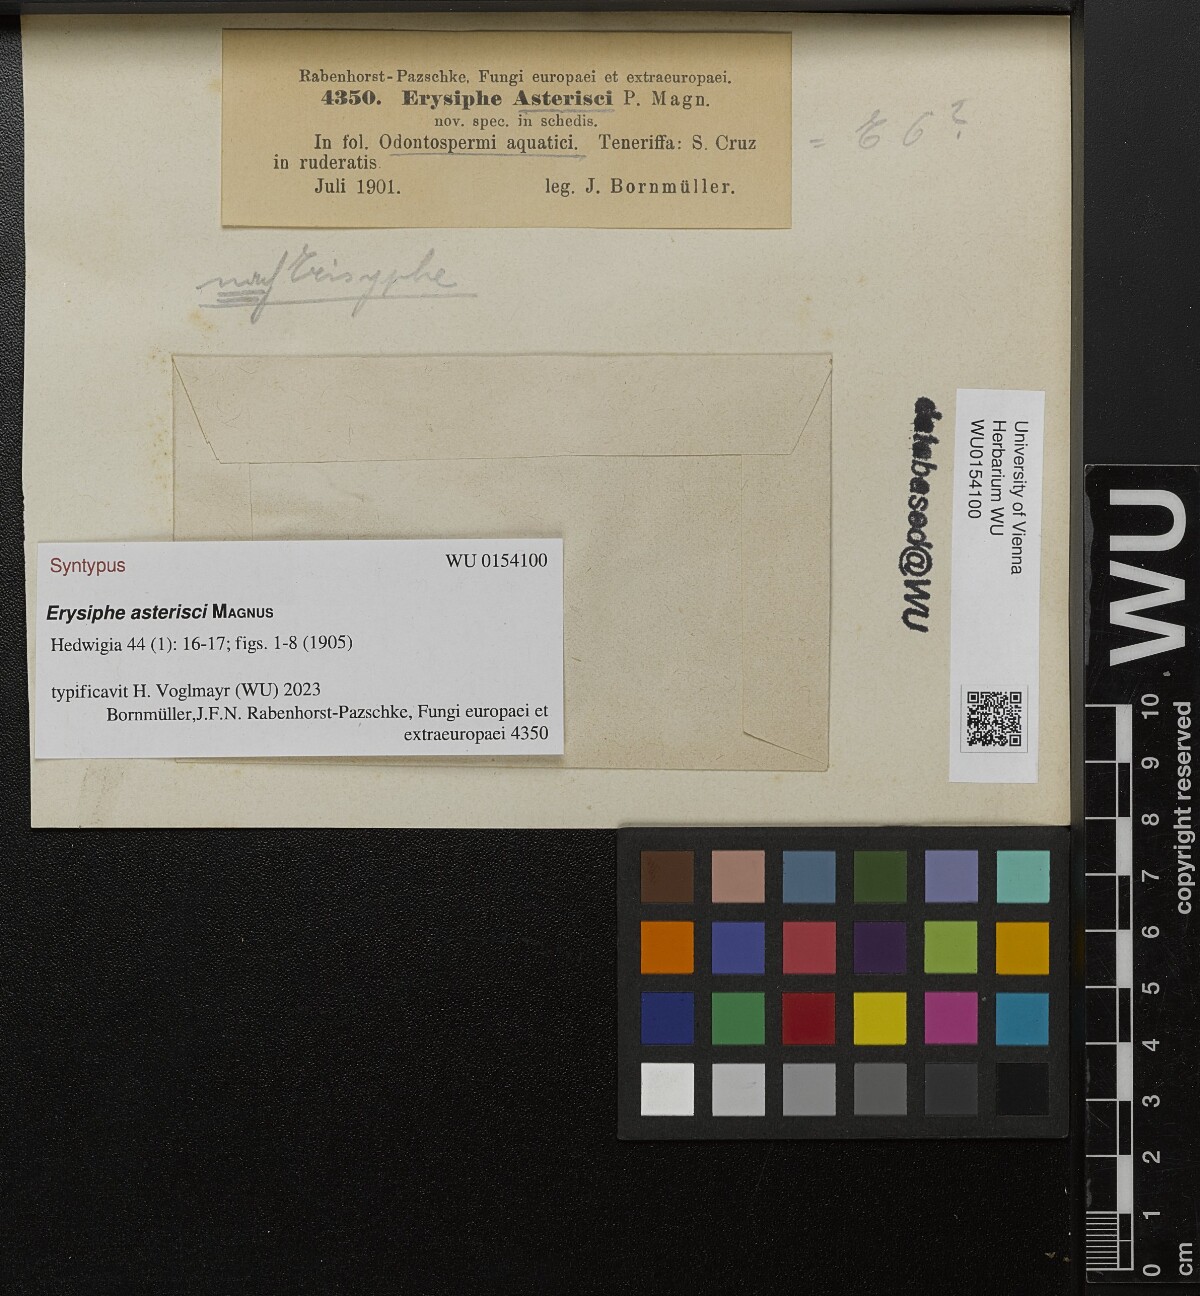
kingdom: Fungi
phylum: Ascomycota
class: Leotiomycetes
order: Helotiales
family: Erysiphaceae
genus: Leveillula
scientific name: Leveillula asterisci
